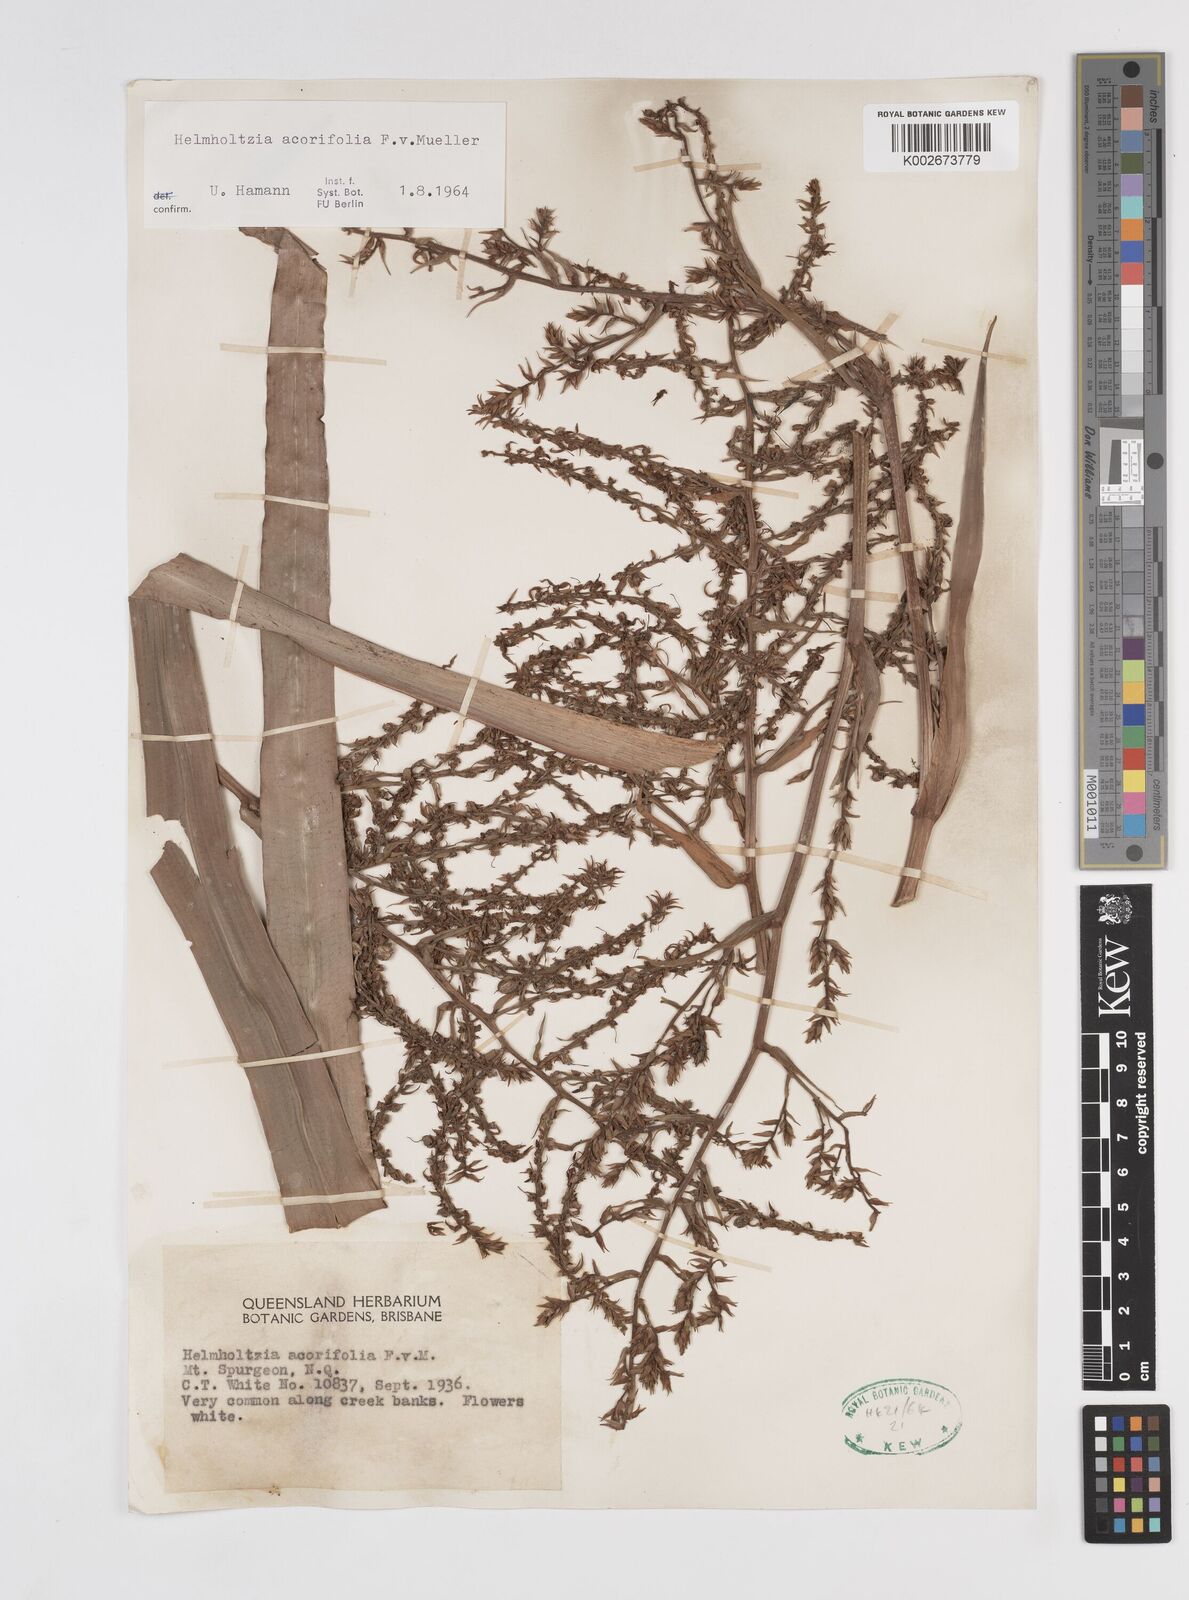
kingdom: Plantae
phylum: Tracheophyta
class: Liliopsida
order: Commelinales
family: Philydraceae
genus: Helmholtzia
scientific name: Helmholtzia acorifolia
